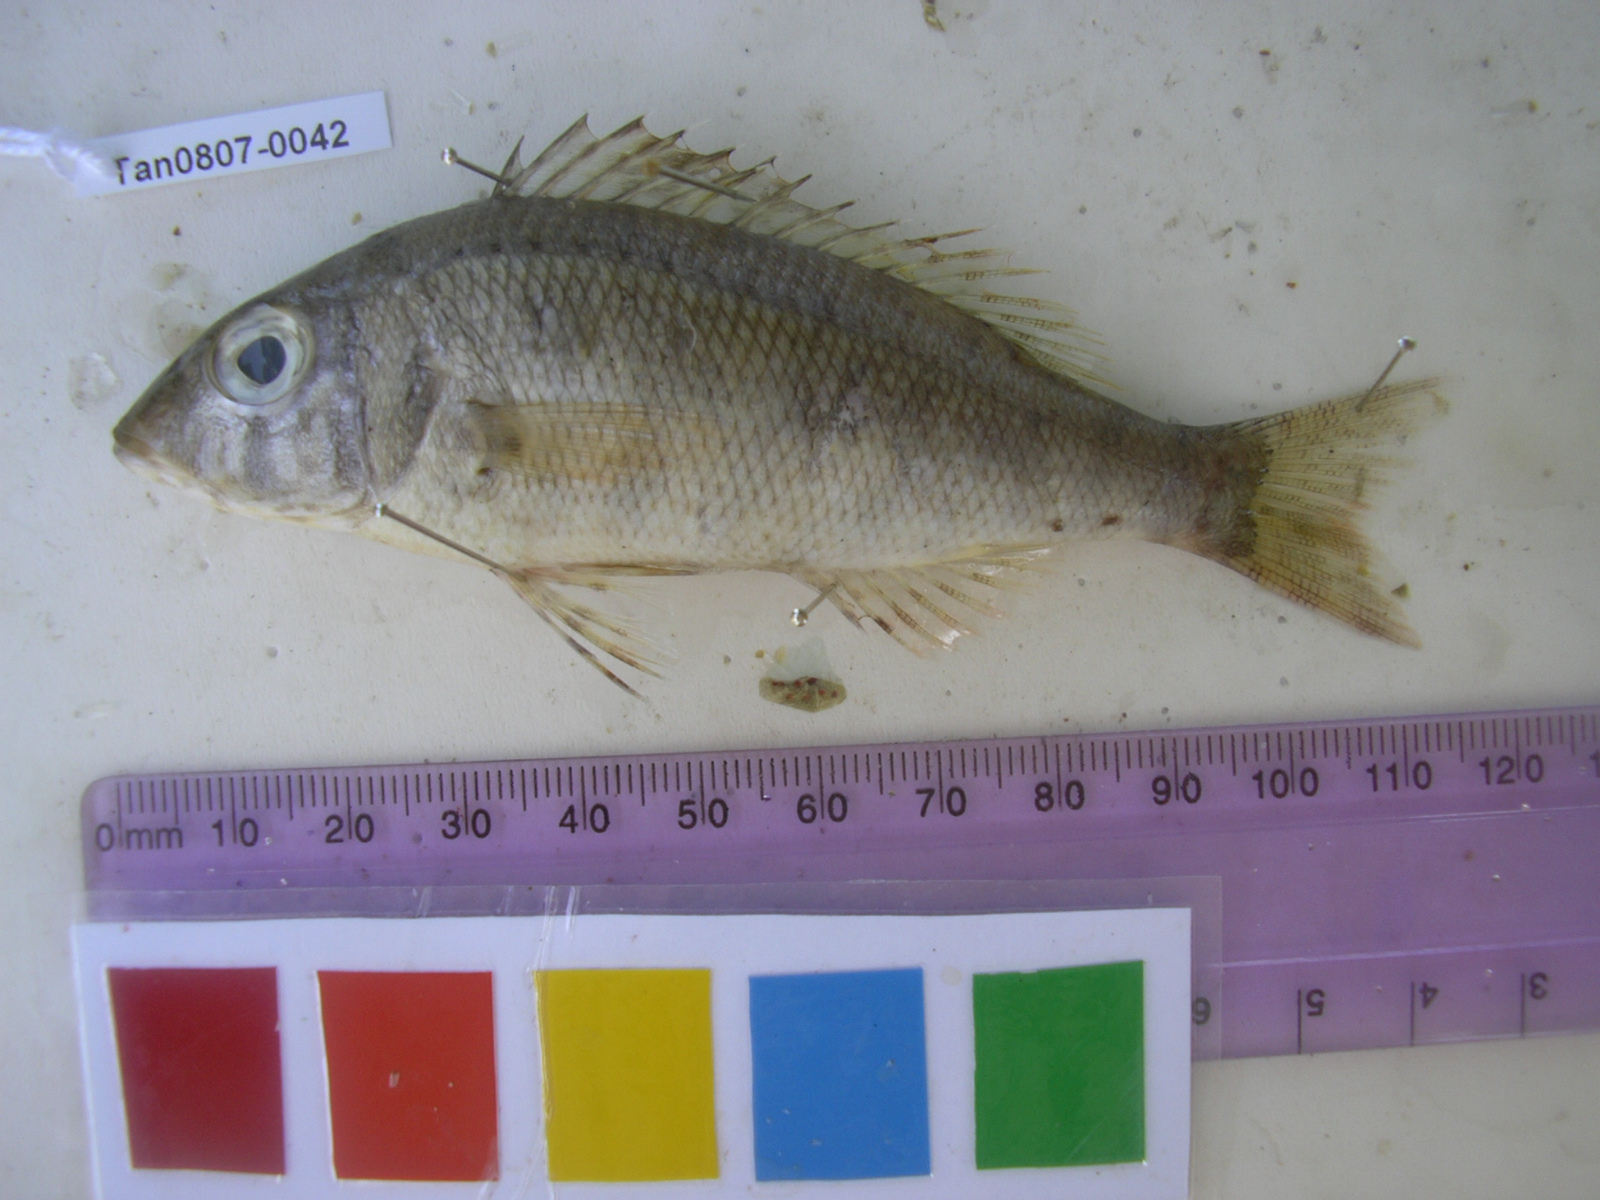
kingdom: Animalia
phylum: Chordata
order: Perciformes
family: Lethrinidae
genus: Lethrinus
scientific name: Lethrinus variegatus
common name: Variegated emperor
